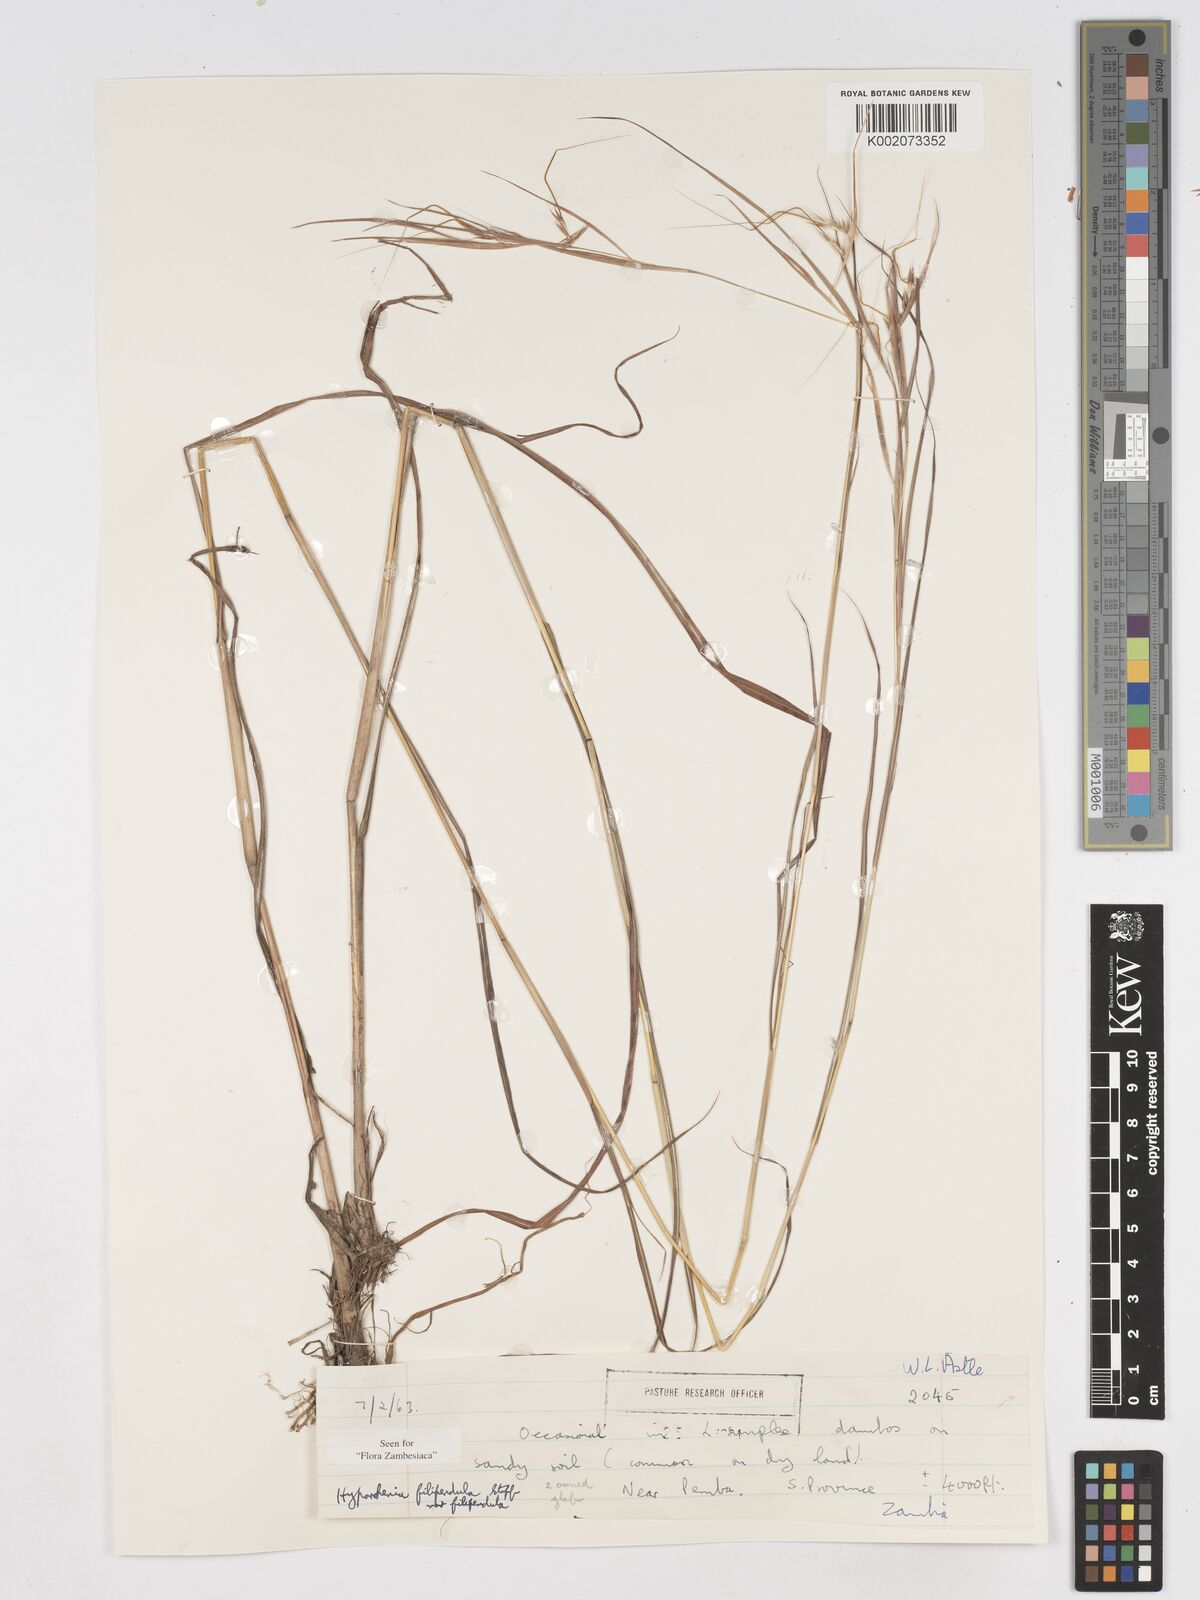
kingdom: Plantae
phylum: Tracheophyta
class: Liliopsida
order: Poales
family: Poaceae
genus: Hyparrhenia
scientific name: Hyparrhenia filipendula
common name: Tambookie grass
